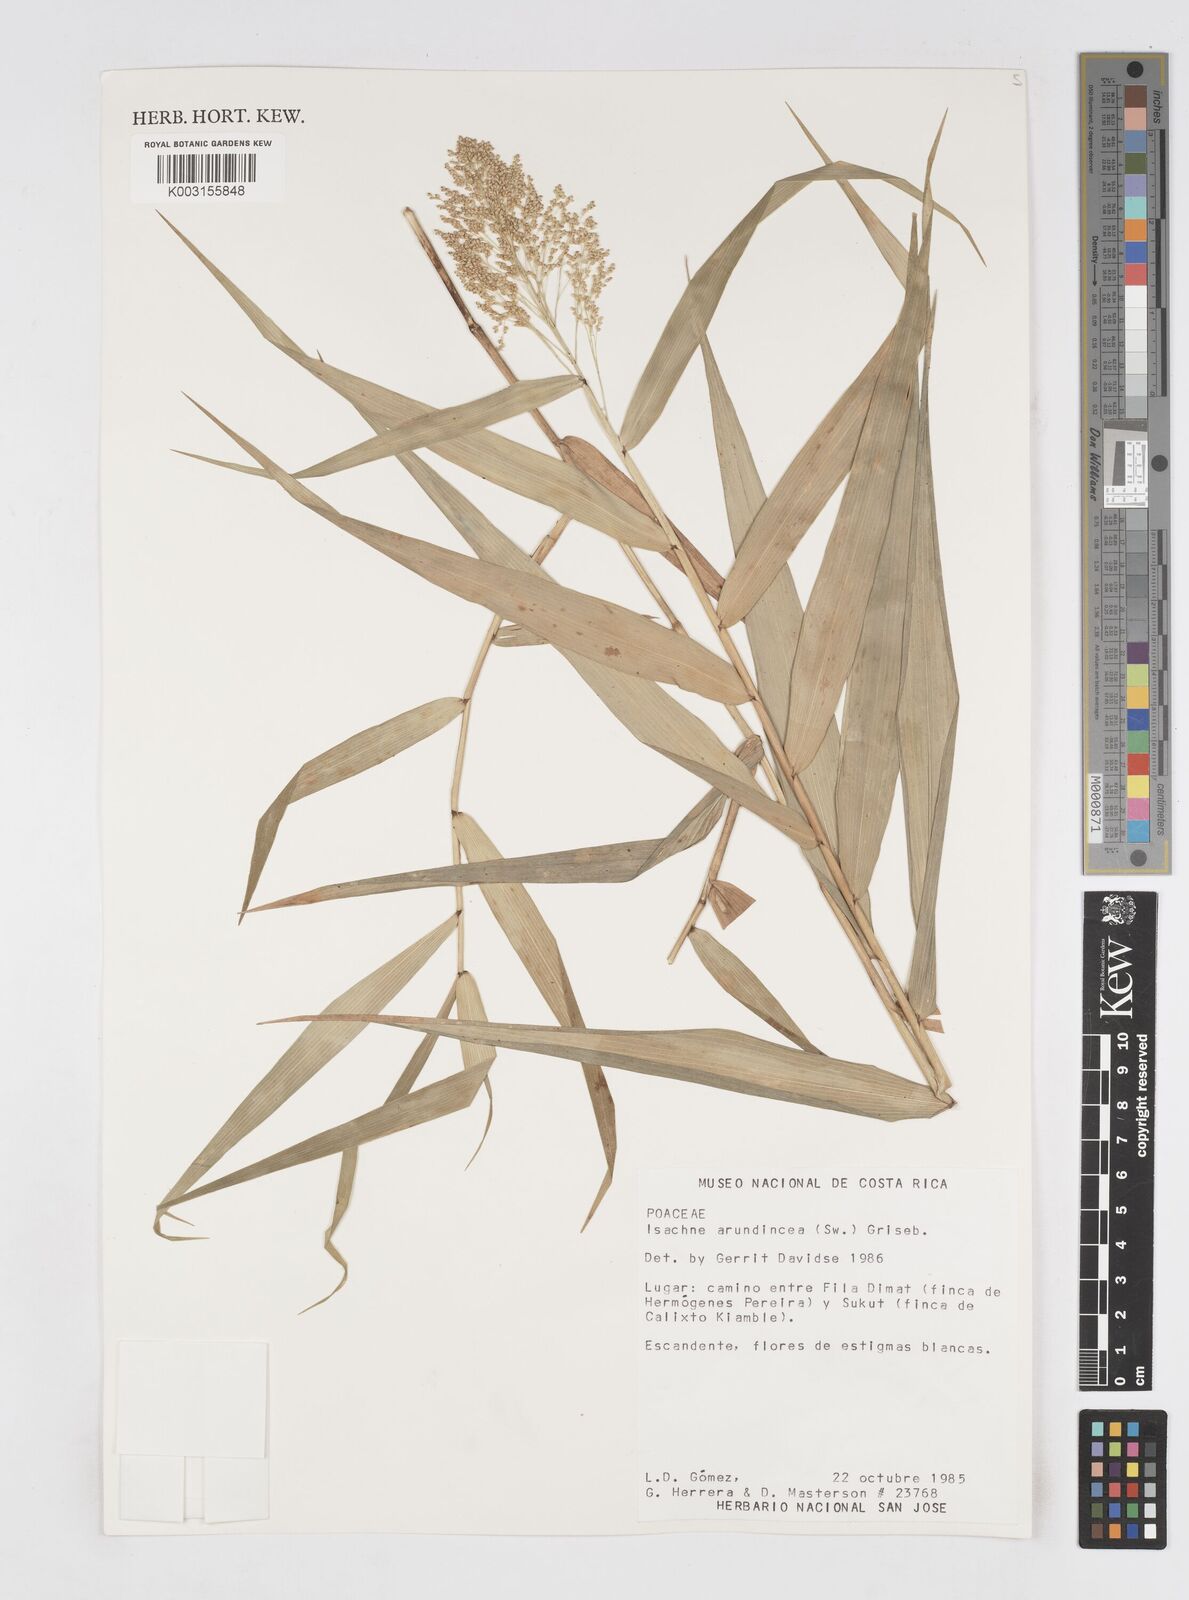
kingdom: Plantae
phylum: Tracheophyta
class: Liliopsida
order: Poales
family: Poaceae
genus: Isachne
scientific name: Isachne arundinacea
